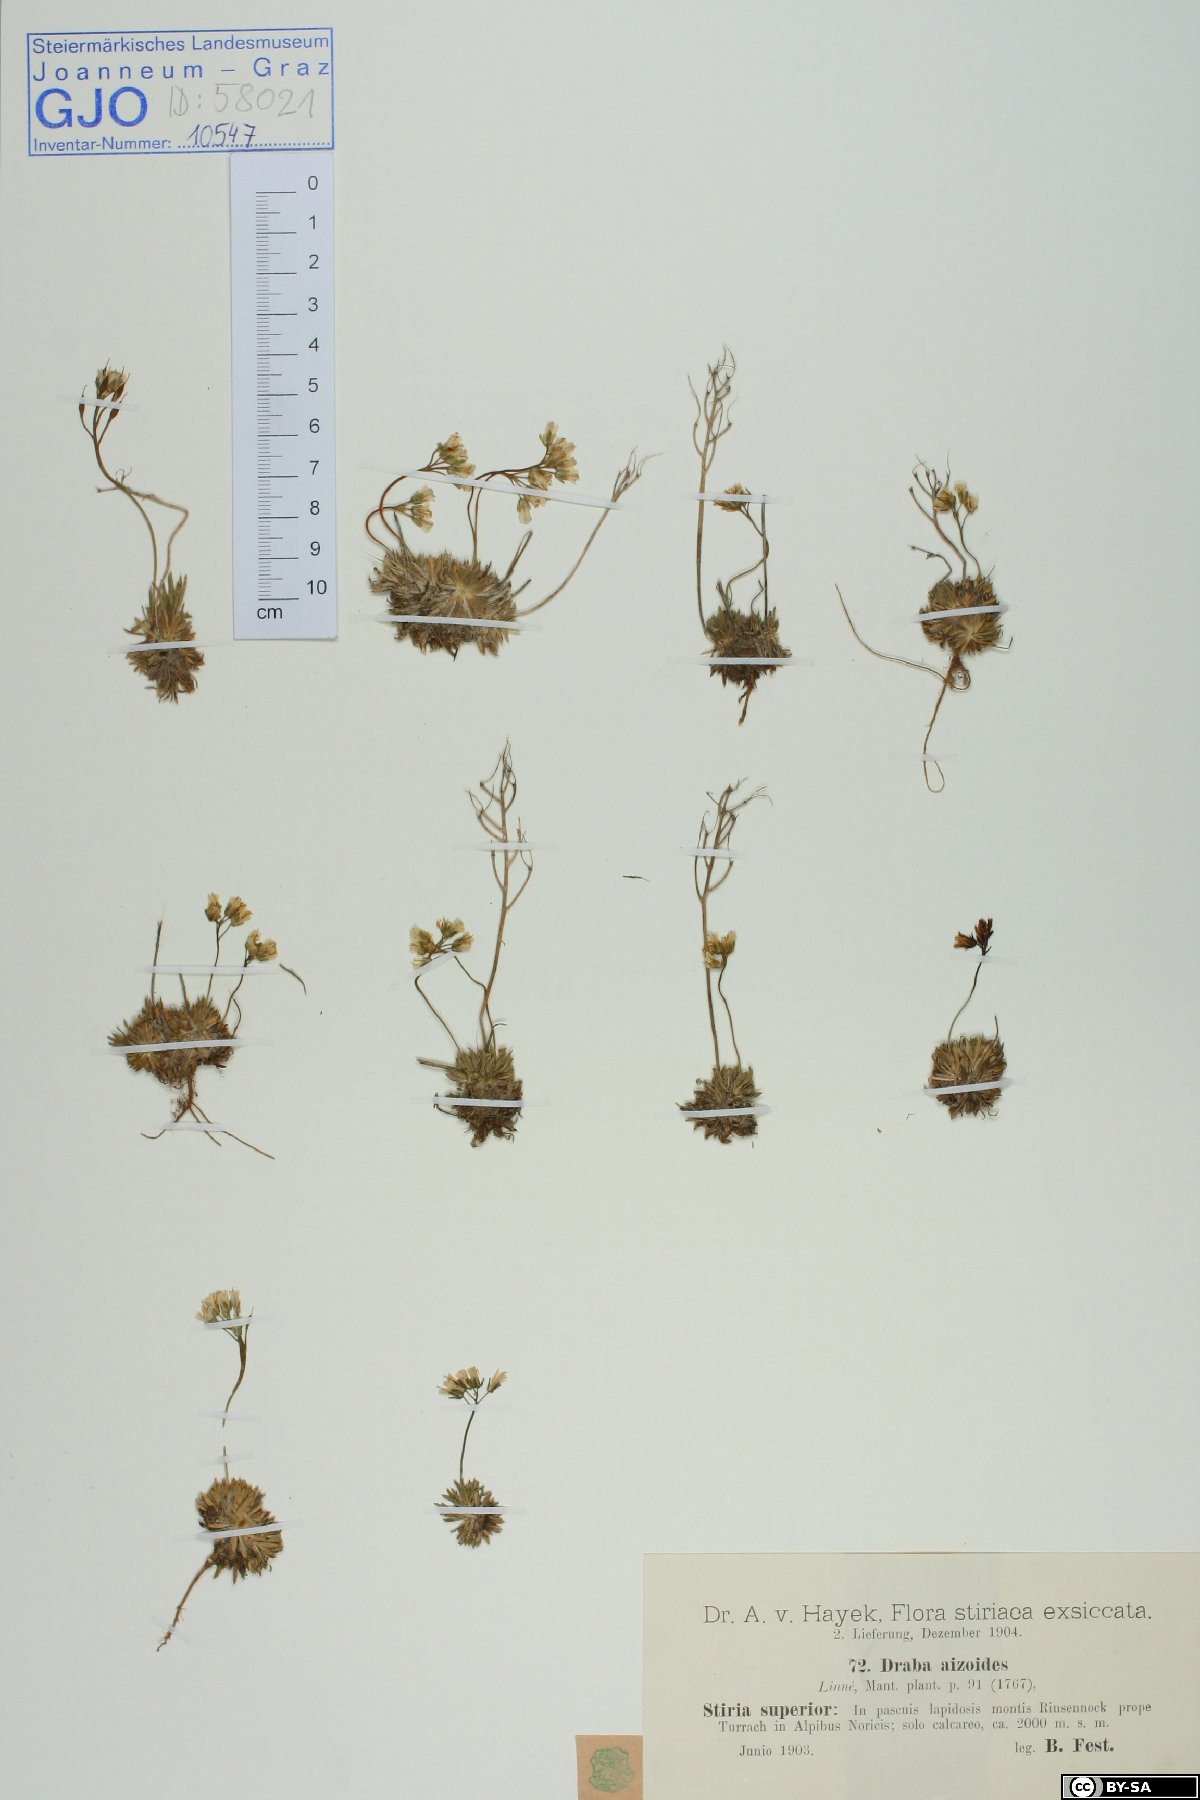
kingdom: Plantae
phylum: Tracheophyta
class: Magnoliopsida
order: Brassicales
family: Brassicaceae
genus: Draba
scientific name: Draba aizoides
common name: Yellow whitlowgrass
